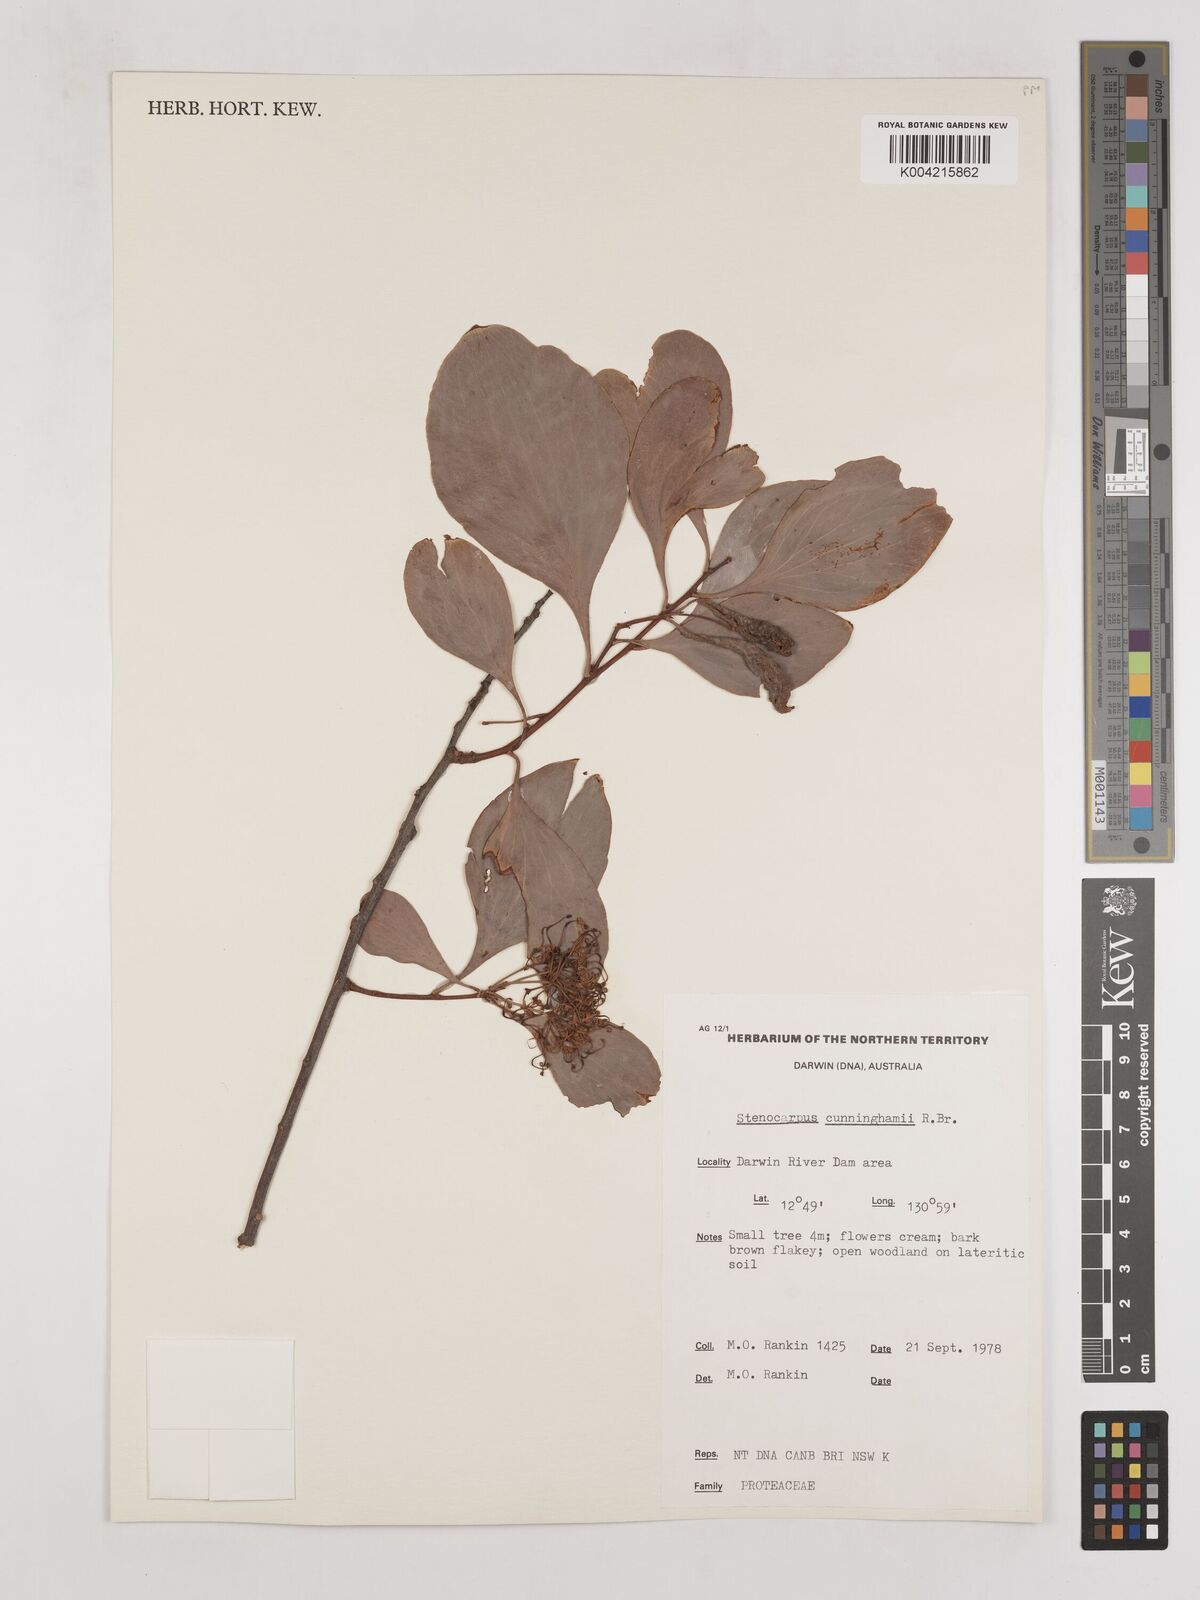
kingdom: Plantae
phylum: Tracheophyta
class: Magnoliopsida
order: Proteales
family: Proteaceae
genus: Stenocarpus
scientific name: Stenocarpus cunninghamii
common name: Little wheelbush
